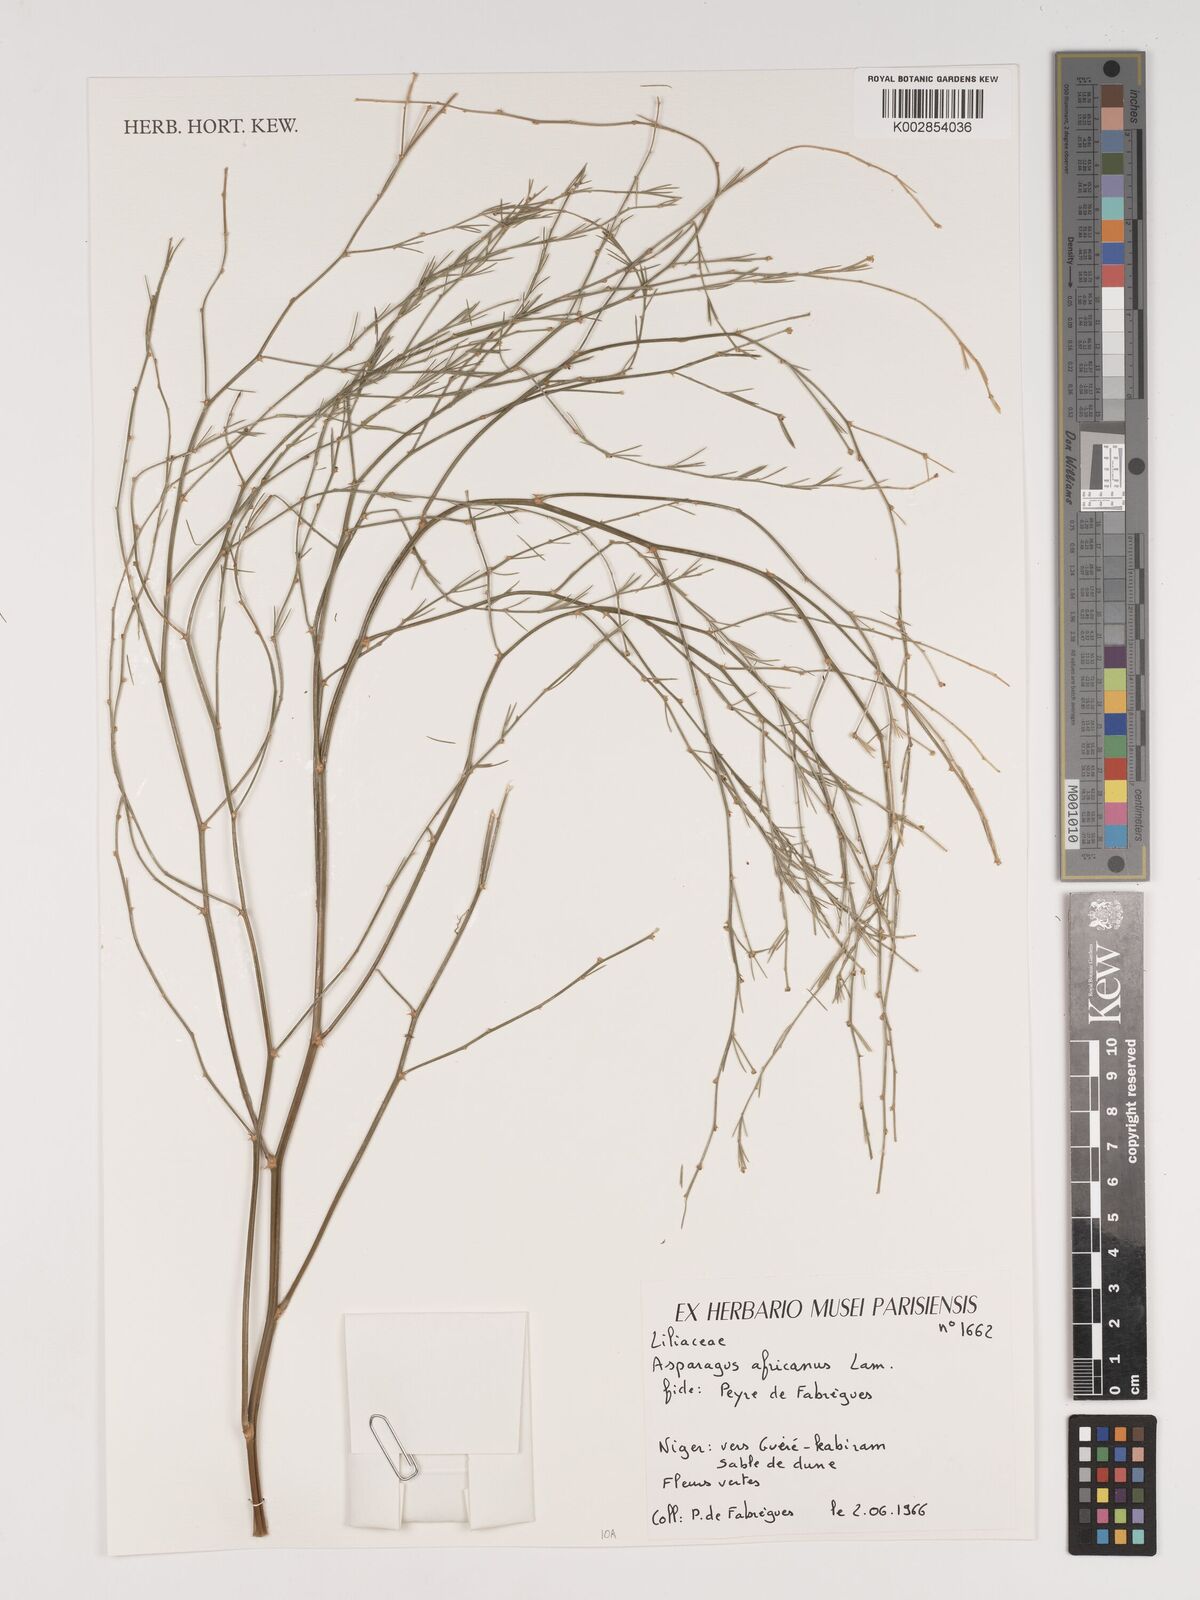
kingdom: Plantae
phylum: Tracheophyta
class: Liliopsida
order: Asparagales
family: Asparagaceae
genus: Asparagus
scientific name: Asparagus africanus
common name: Asparagus-fern
